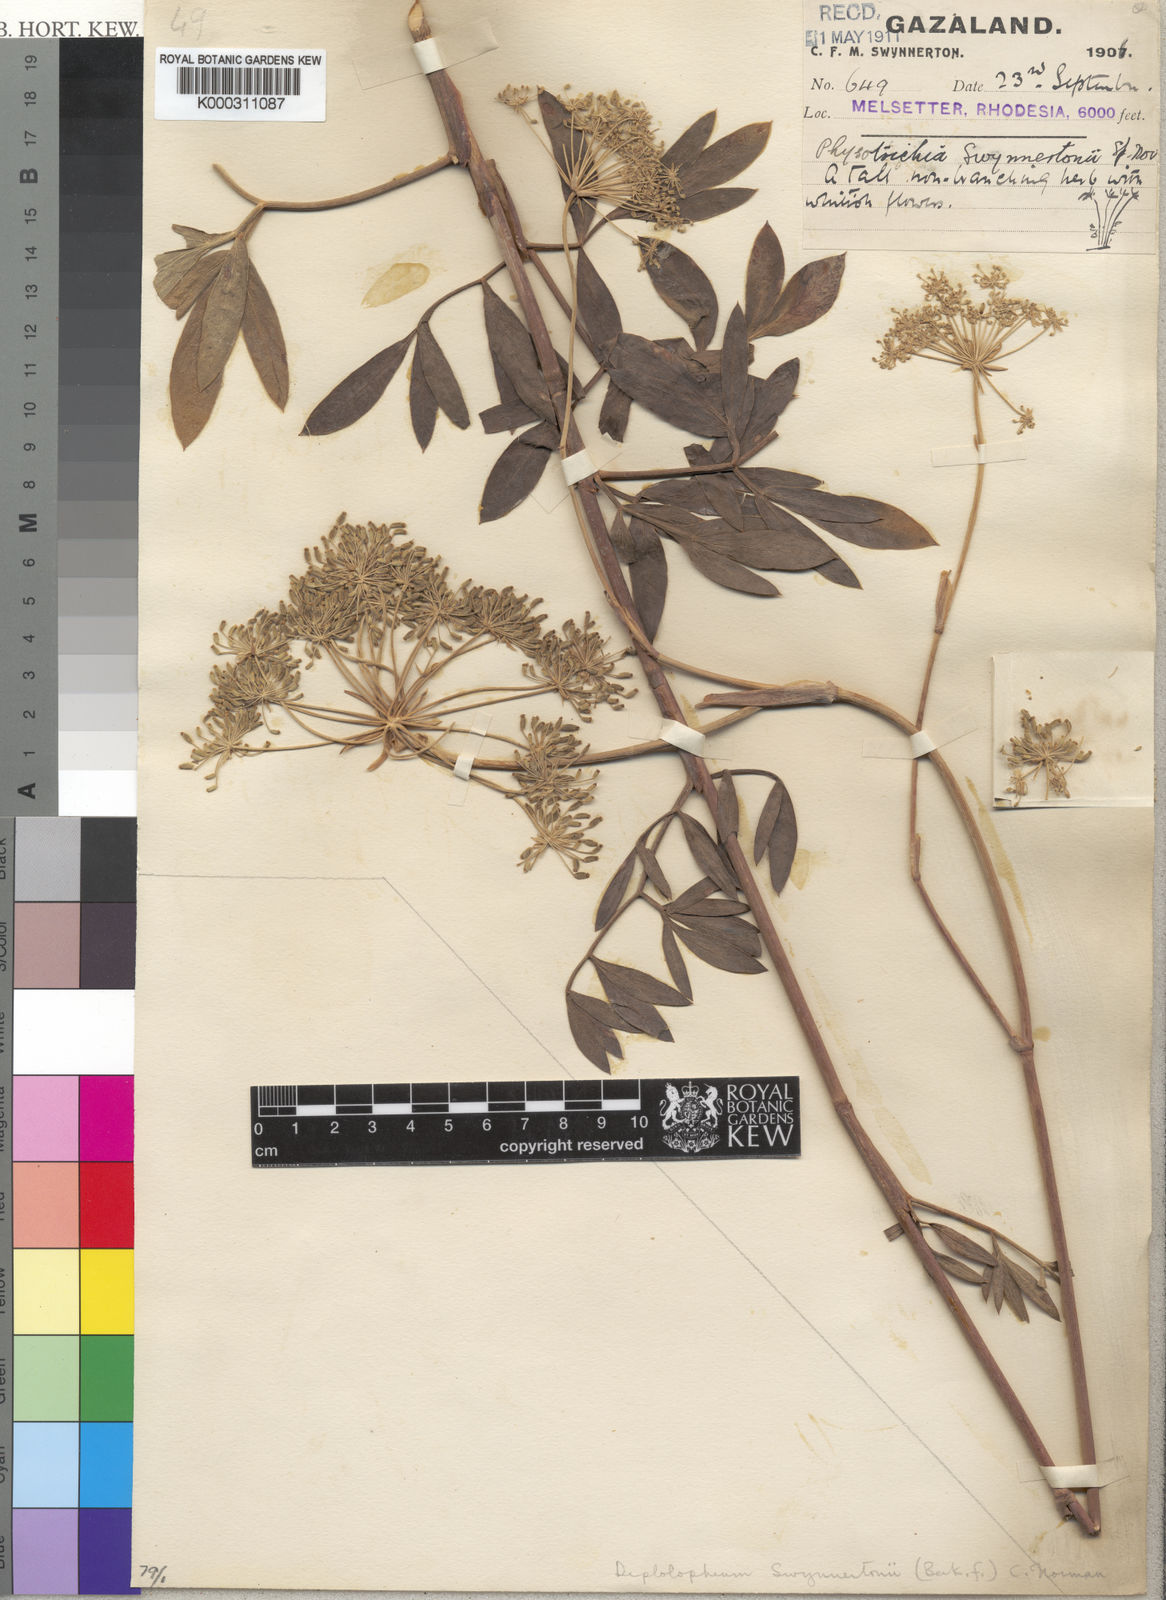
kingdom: Plantae
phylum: Tracheophyta
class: Magnoliopsida
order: Apiales
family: Apiaceae
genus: Diplolophium
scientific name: Diplolophium swynnertonii
